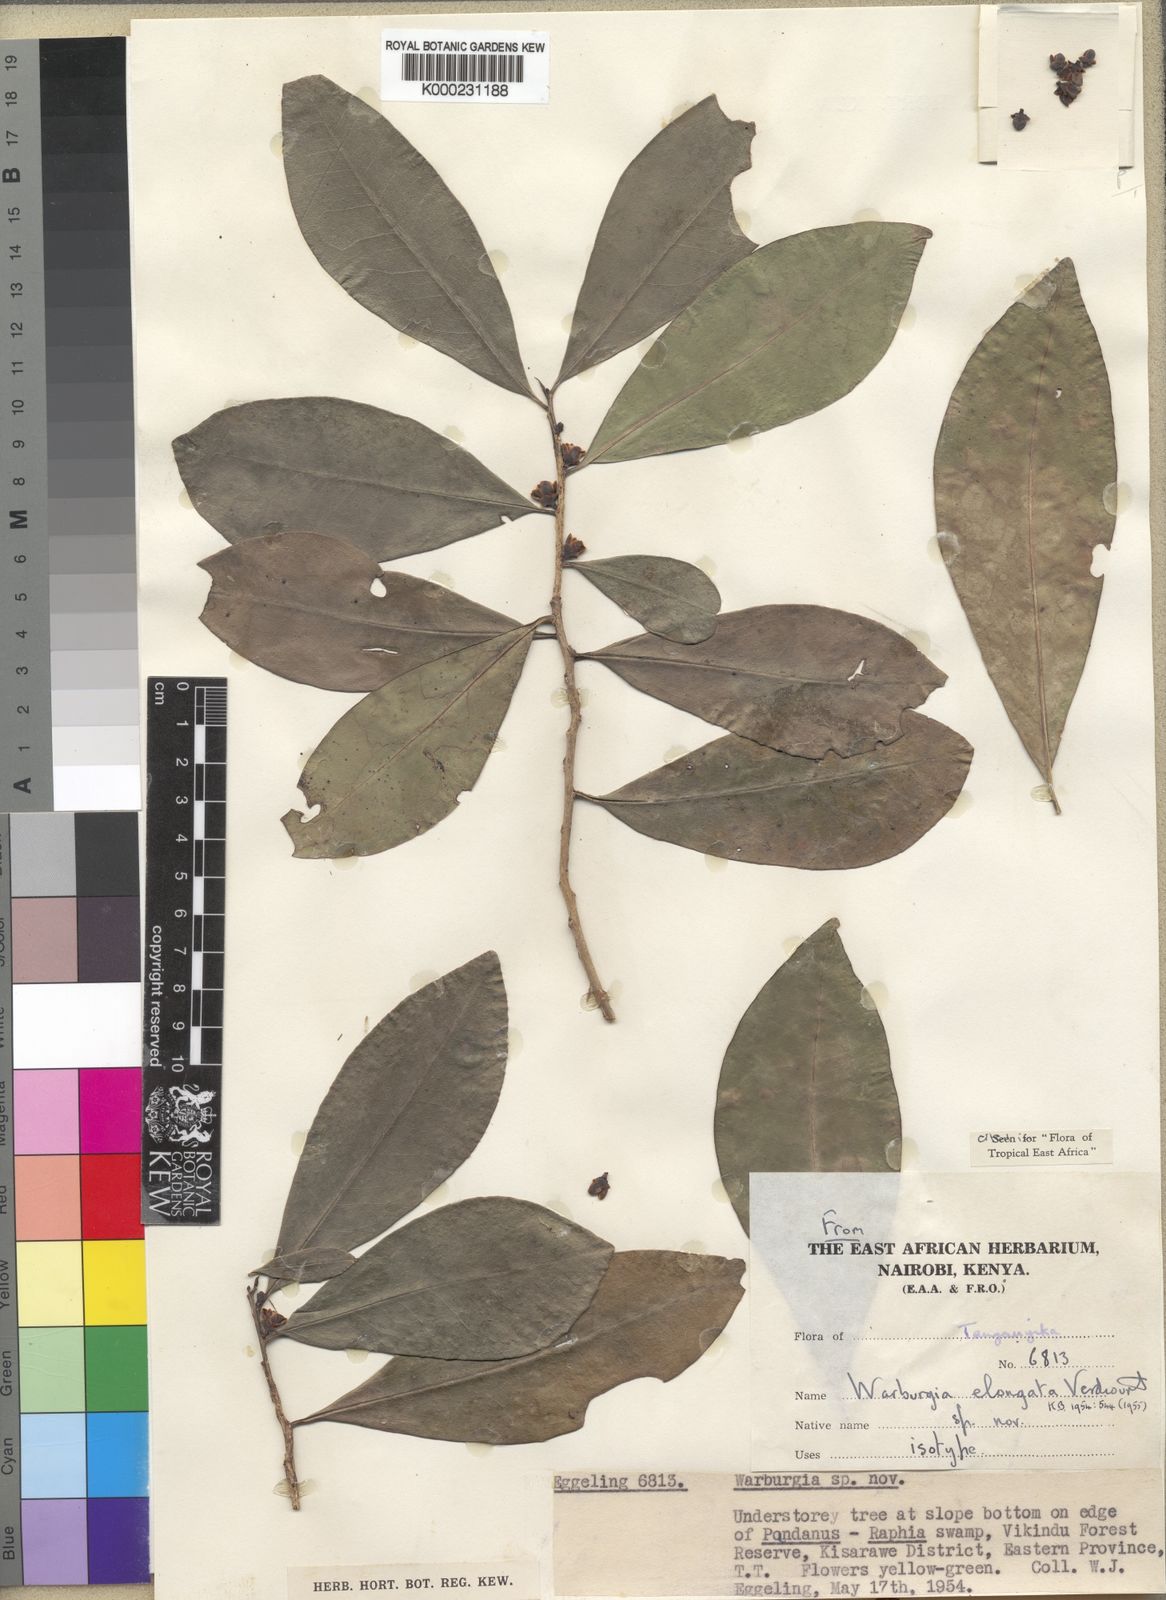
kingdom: Plantae
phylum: Tracheophyta
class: Magnoliopsida
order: Canellales
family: Canellaceae
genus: Warburgia
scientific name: Warburgia elongata
